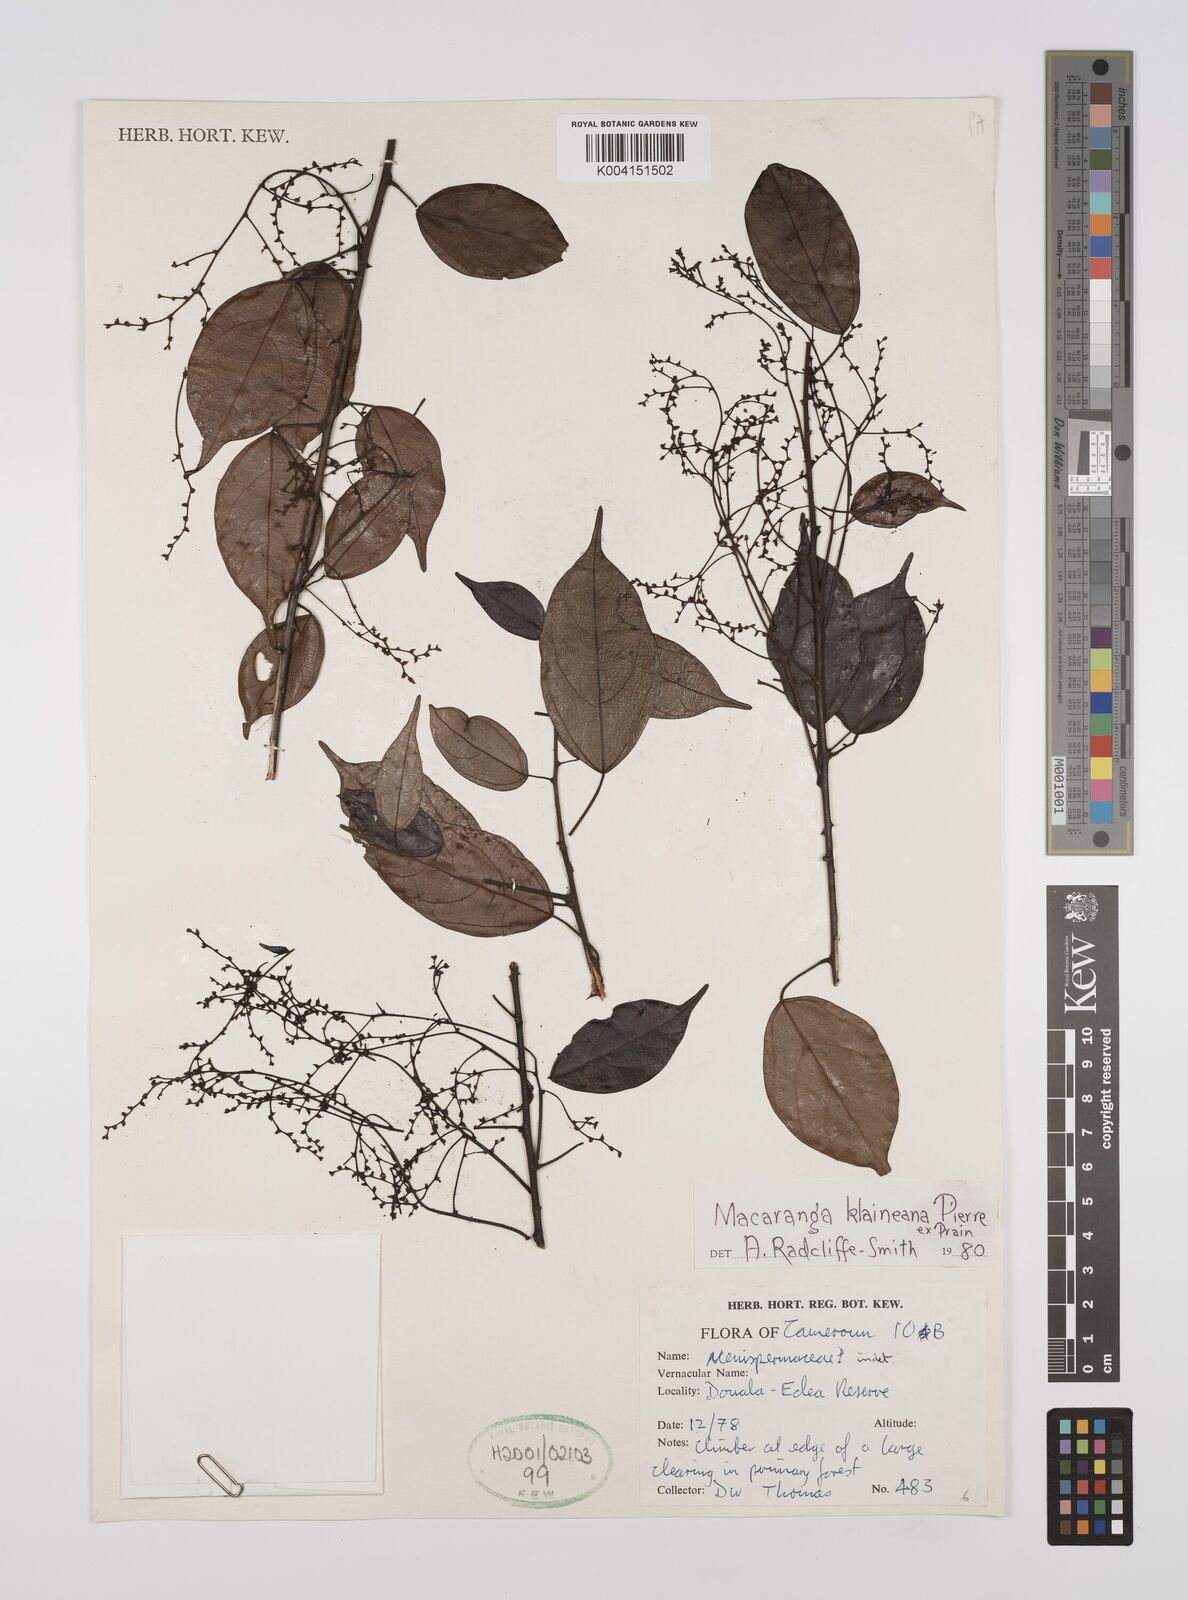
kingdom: Plantae
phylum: Tracheophyta
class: Magnoliopsida
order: Malpighiales
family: Euphorbiaceae
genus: Macaranga
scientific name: Macaranga klaineana
